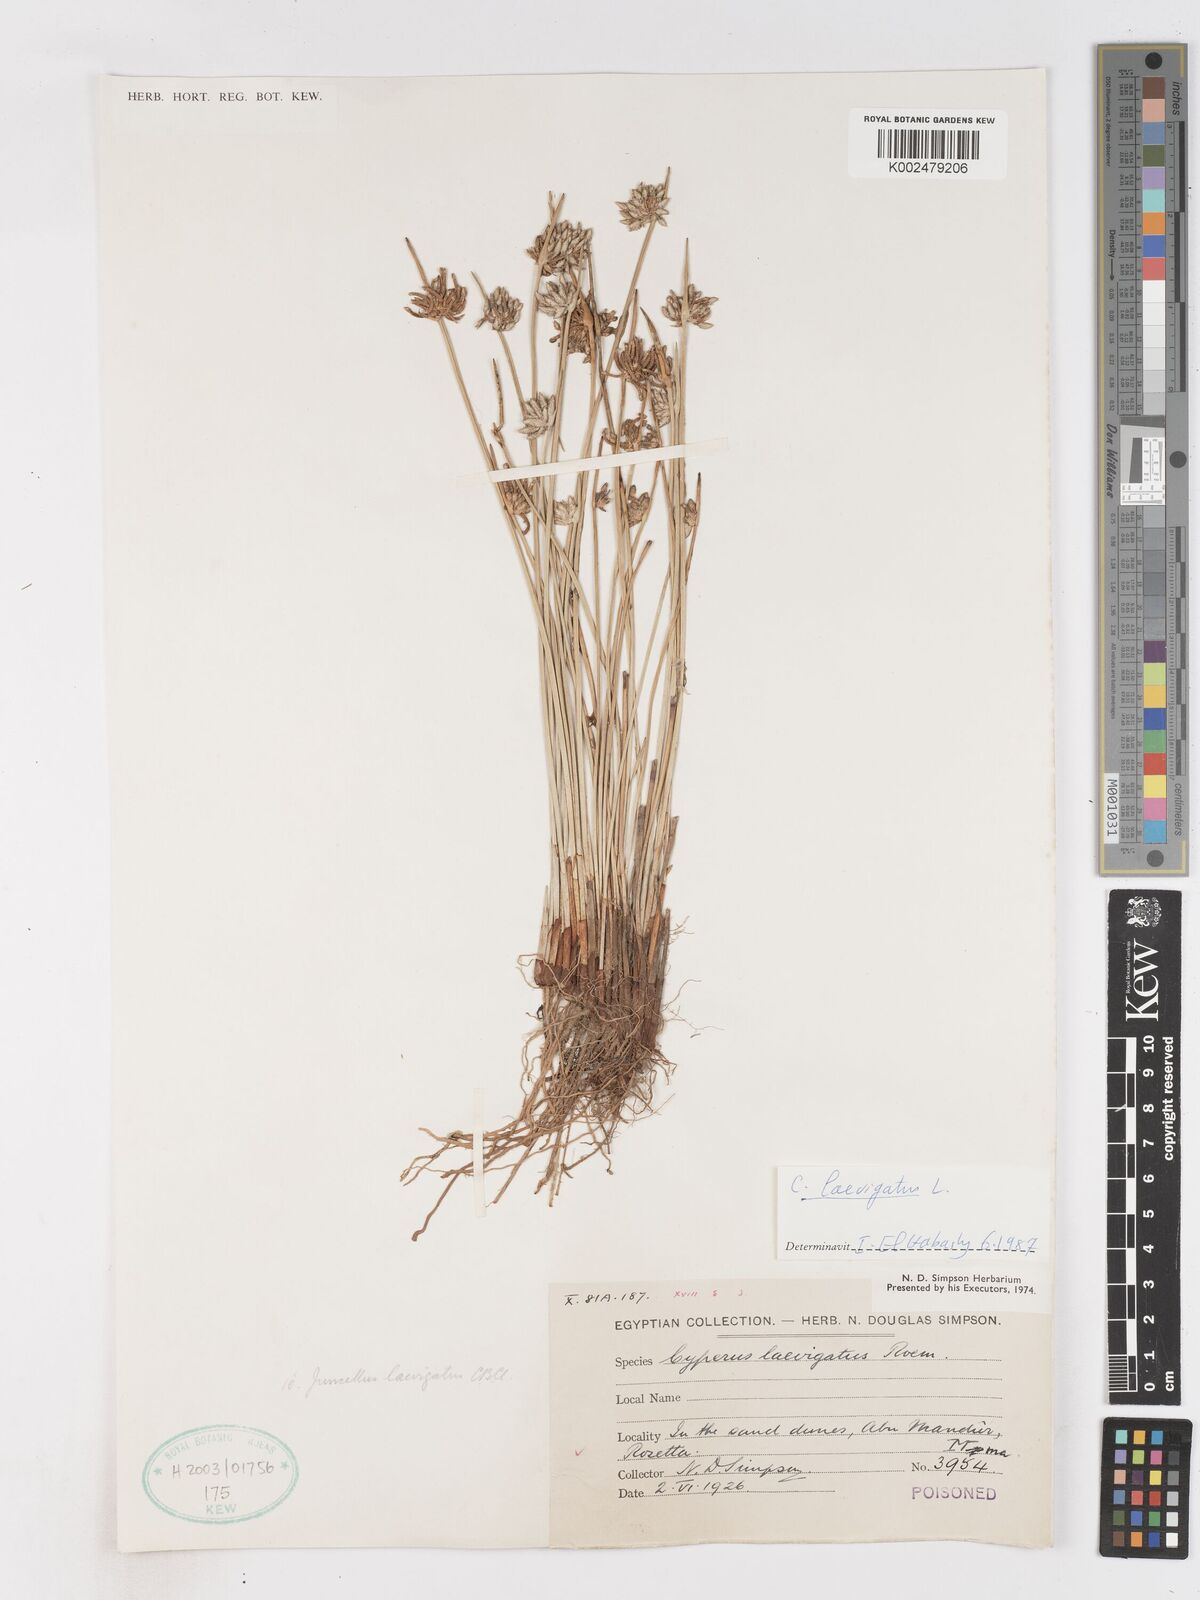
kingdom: Plantae
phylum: Tracheophyta
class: Liliopsida
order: Poales
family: Cyperaceae
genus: Cyperus
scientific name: Cyperus laevigatus
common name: Smooth flat sedge
